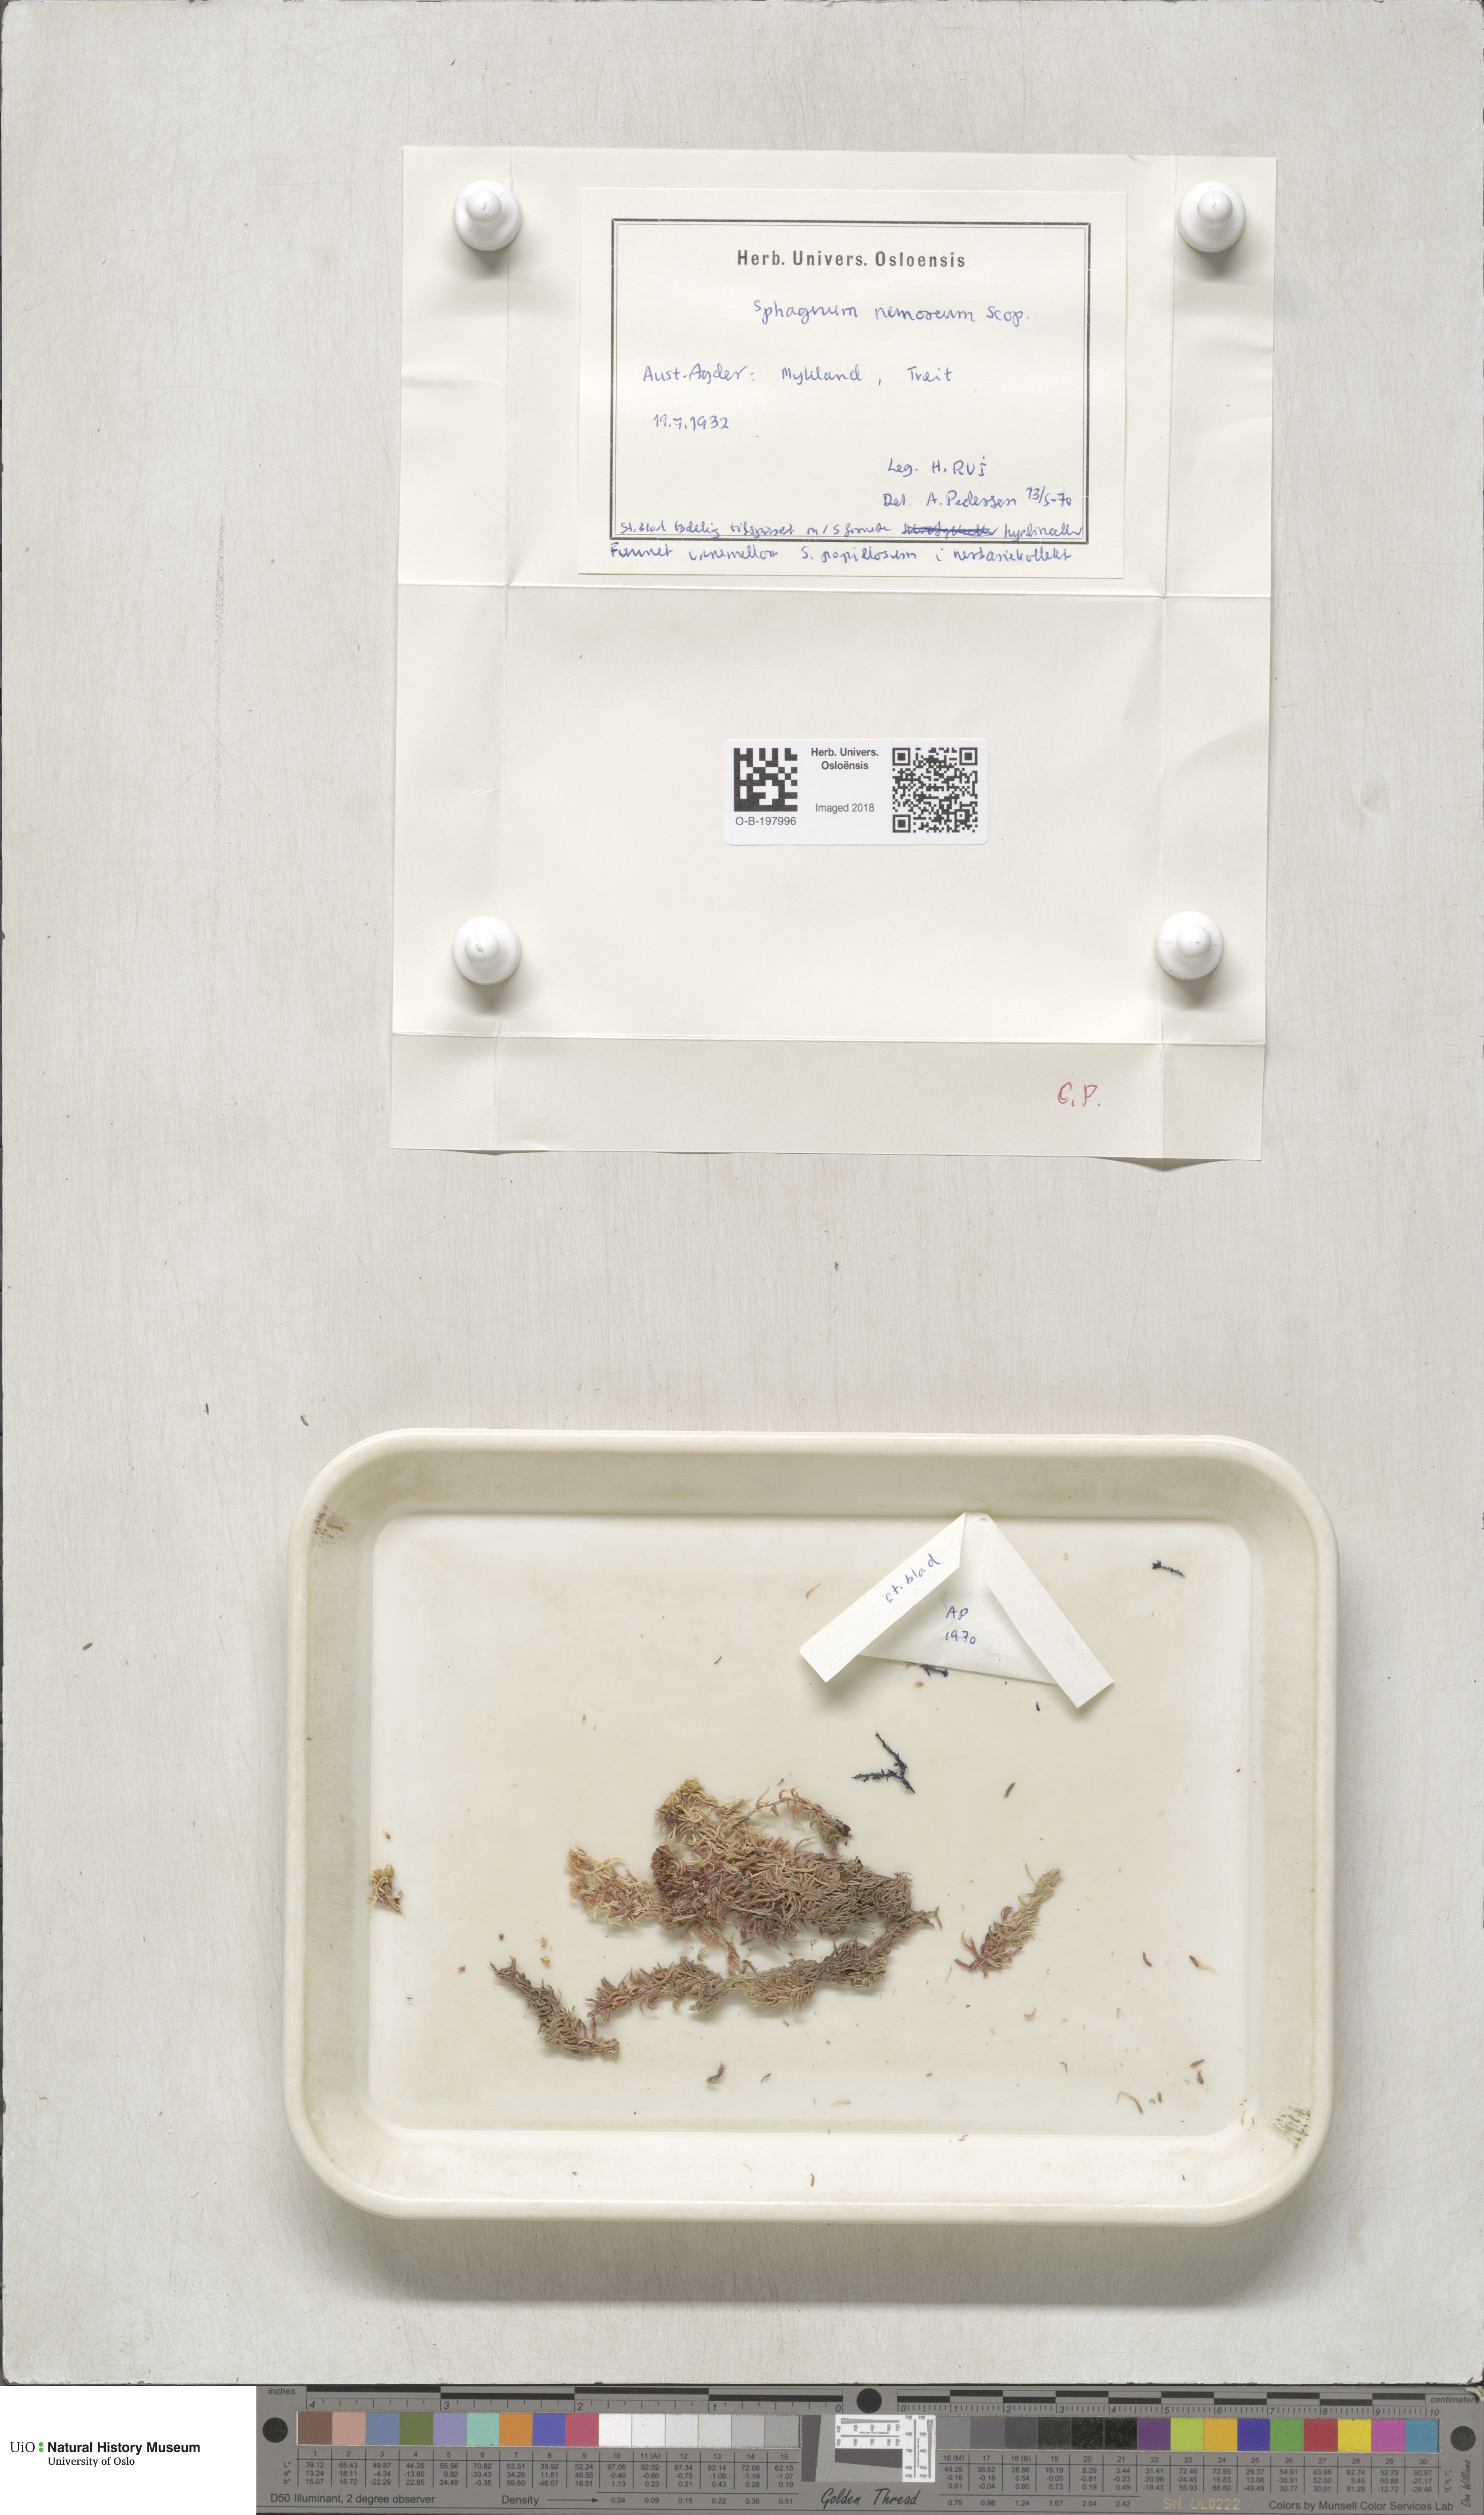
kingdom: Plantae
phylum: Bryophyta
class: Sphagnopsida
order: Sphagnales
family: Sphagnaceae
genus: Sphagnum
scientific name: Sphagnum capillifolium
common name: Small red peat moss
